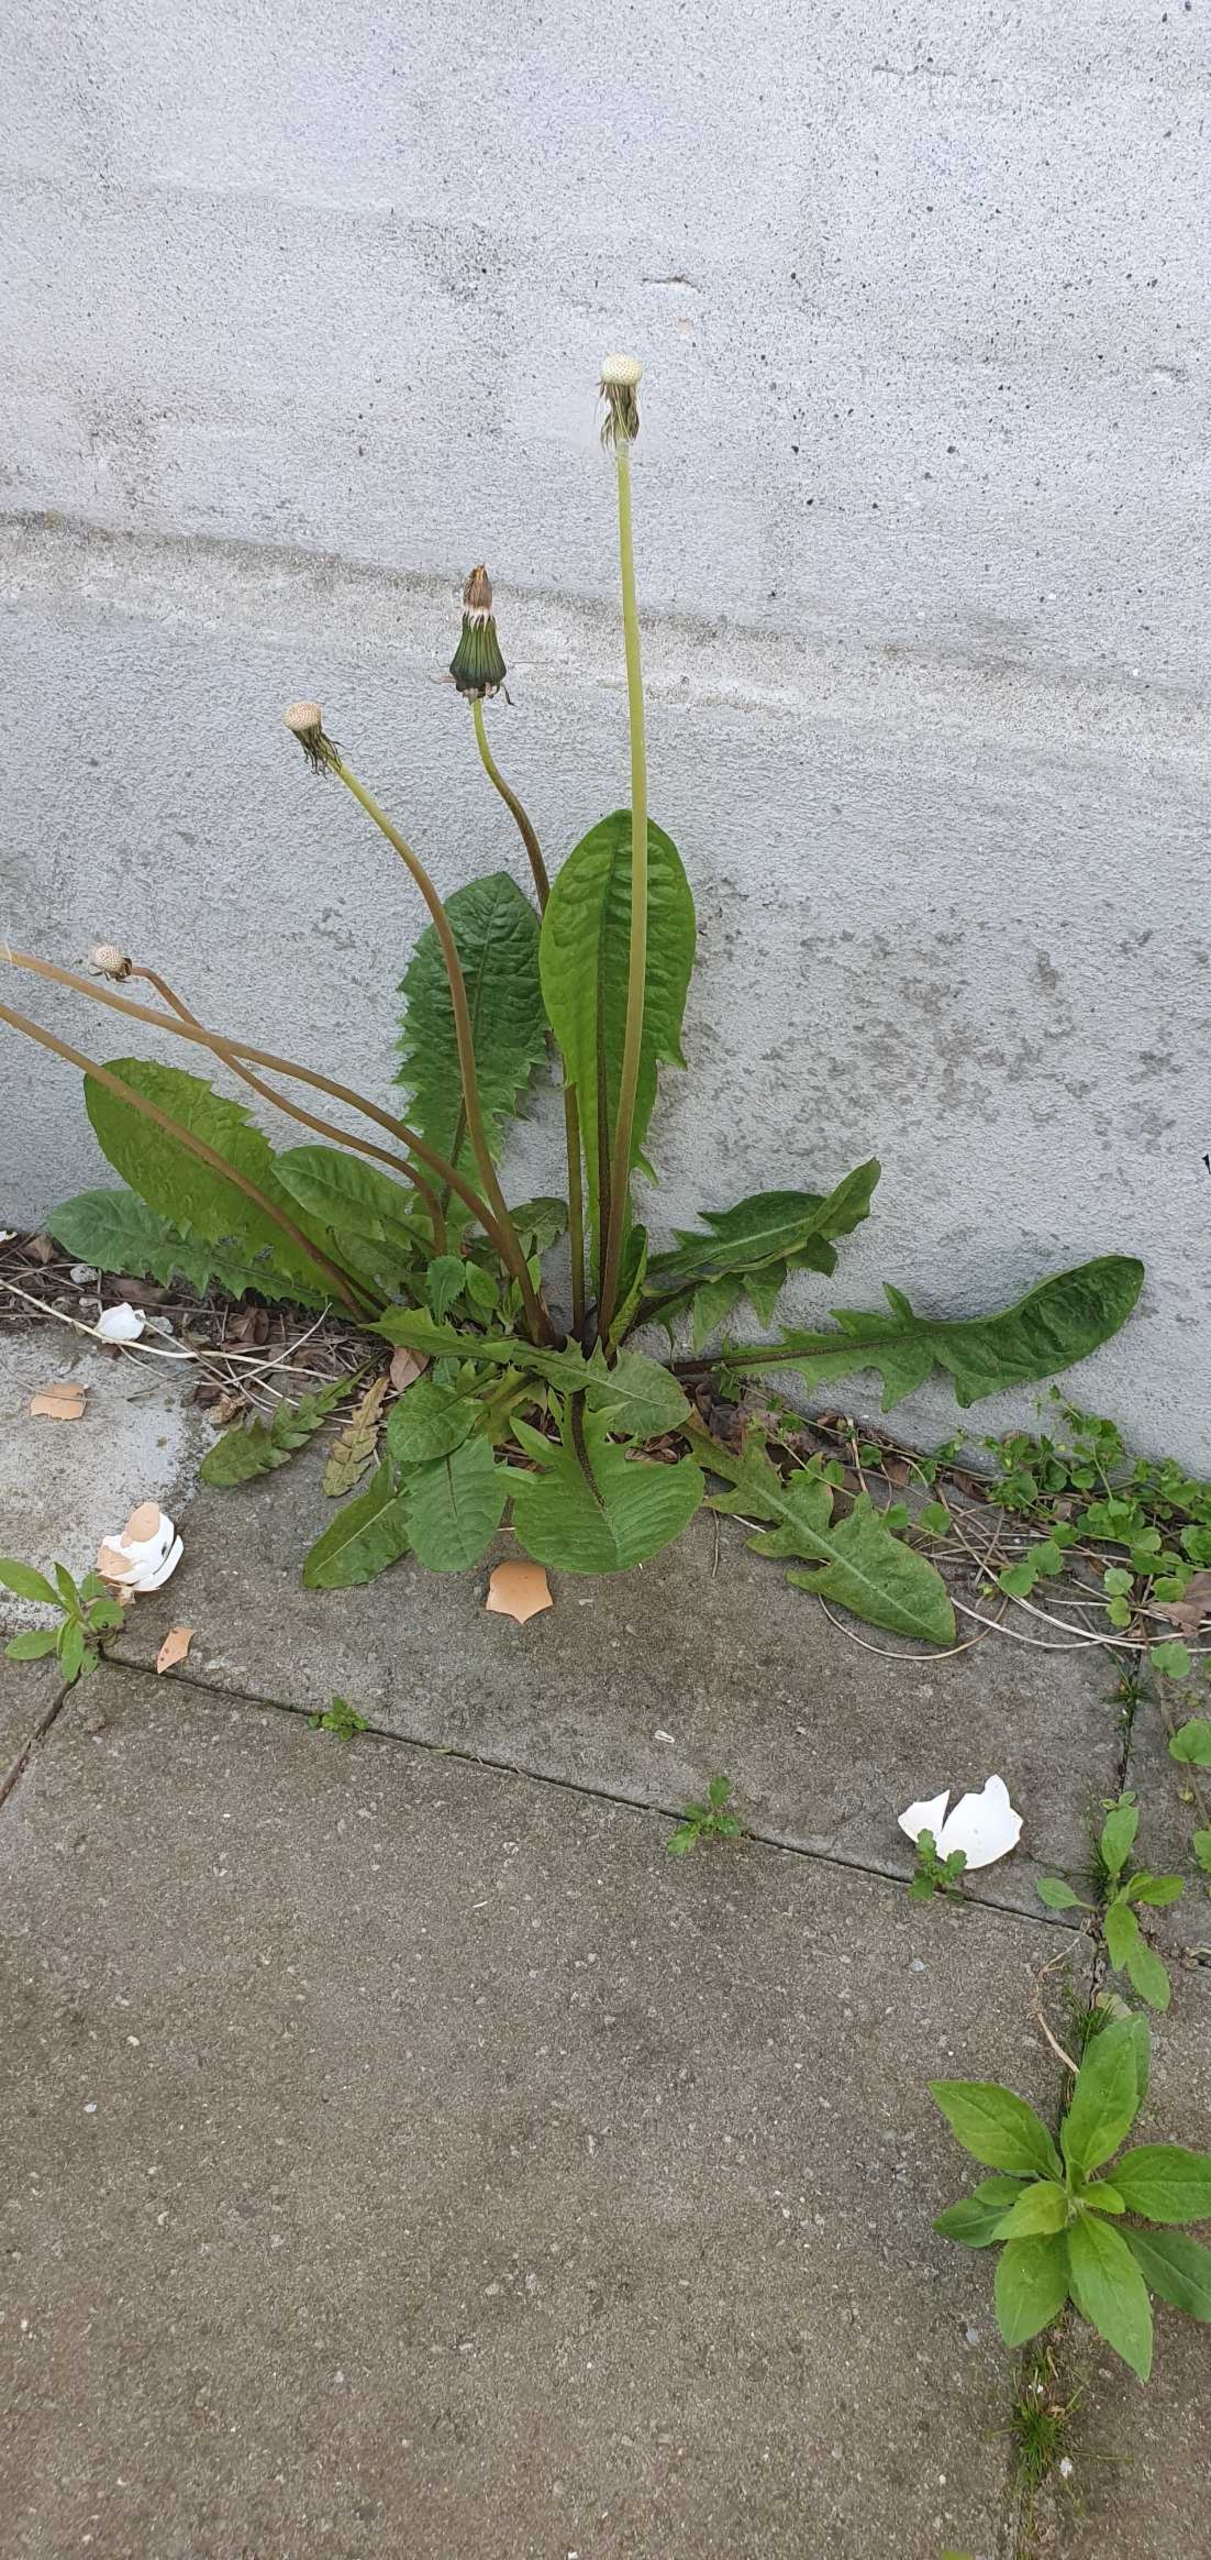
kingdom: Plantae
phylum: Tracheophyta
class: Magnoliopsida
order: Asterales
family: Asteraceae
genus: Taraxacum
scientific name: Taraxacum
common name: Mælkebøtteslægten
